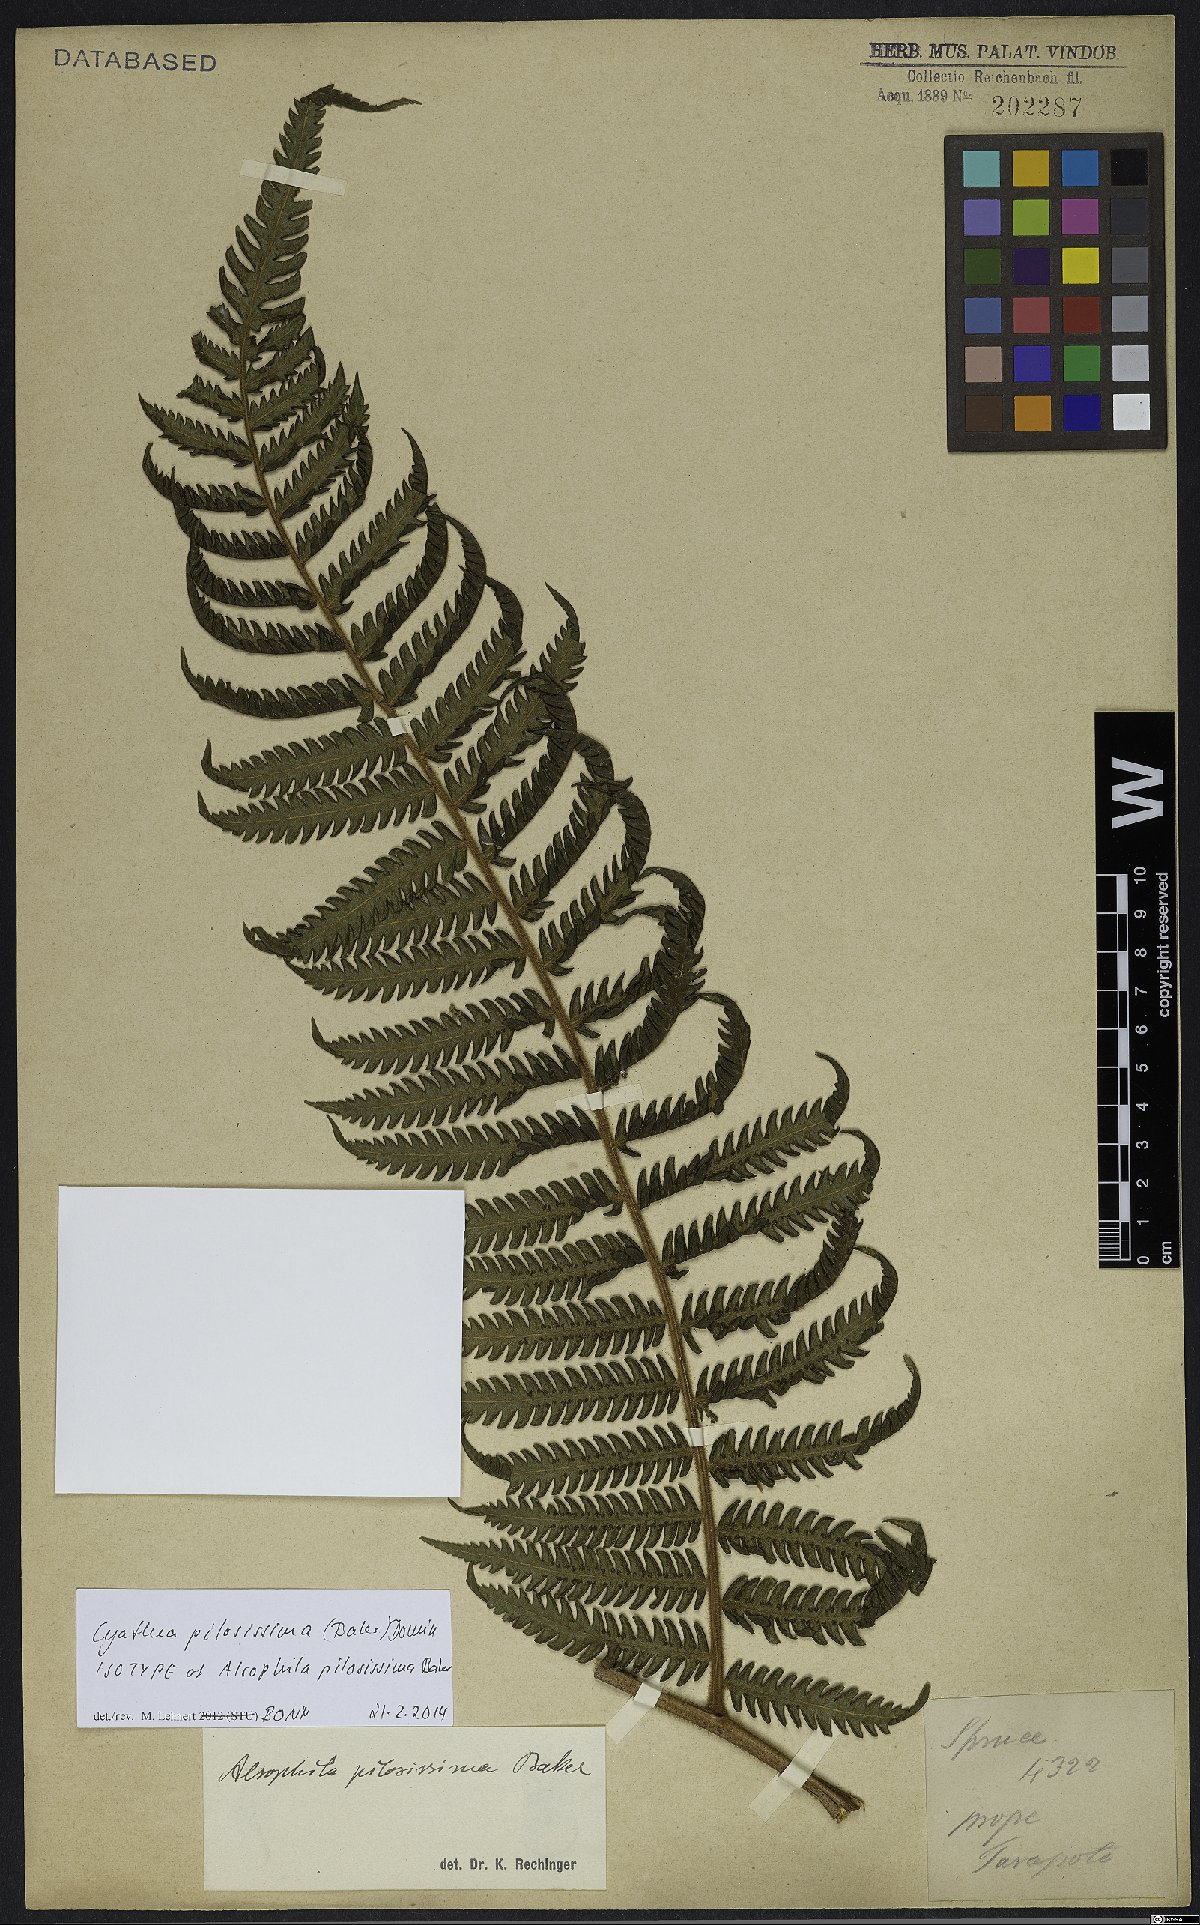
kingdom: Plantae
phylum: Tracheophyta
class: Polypodiopsida
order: Cyatheales
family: Cyatheaceae
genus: Cyathea
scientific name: Cyathea pilosissima
